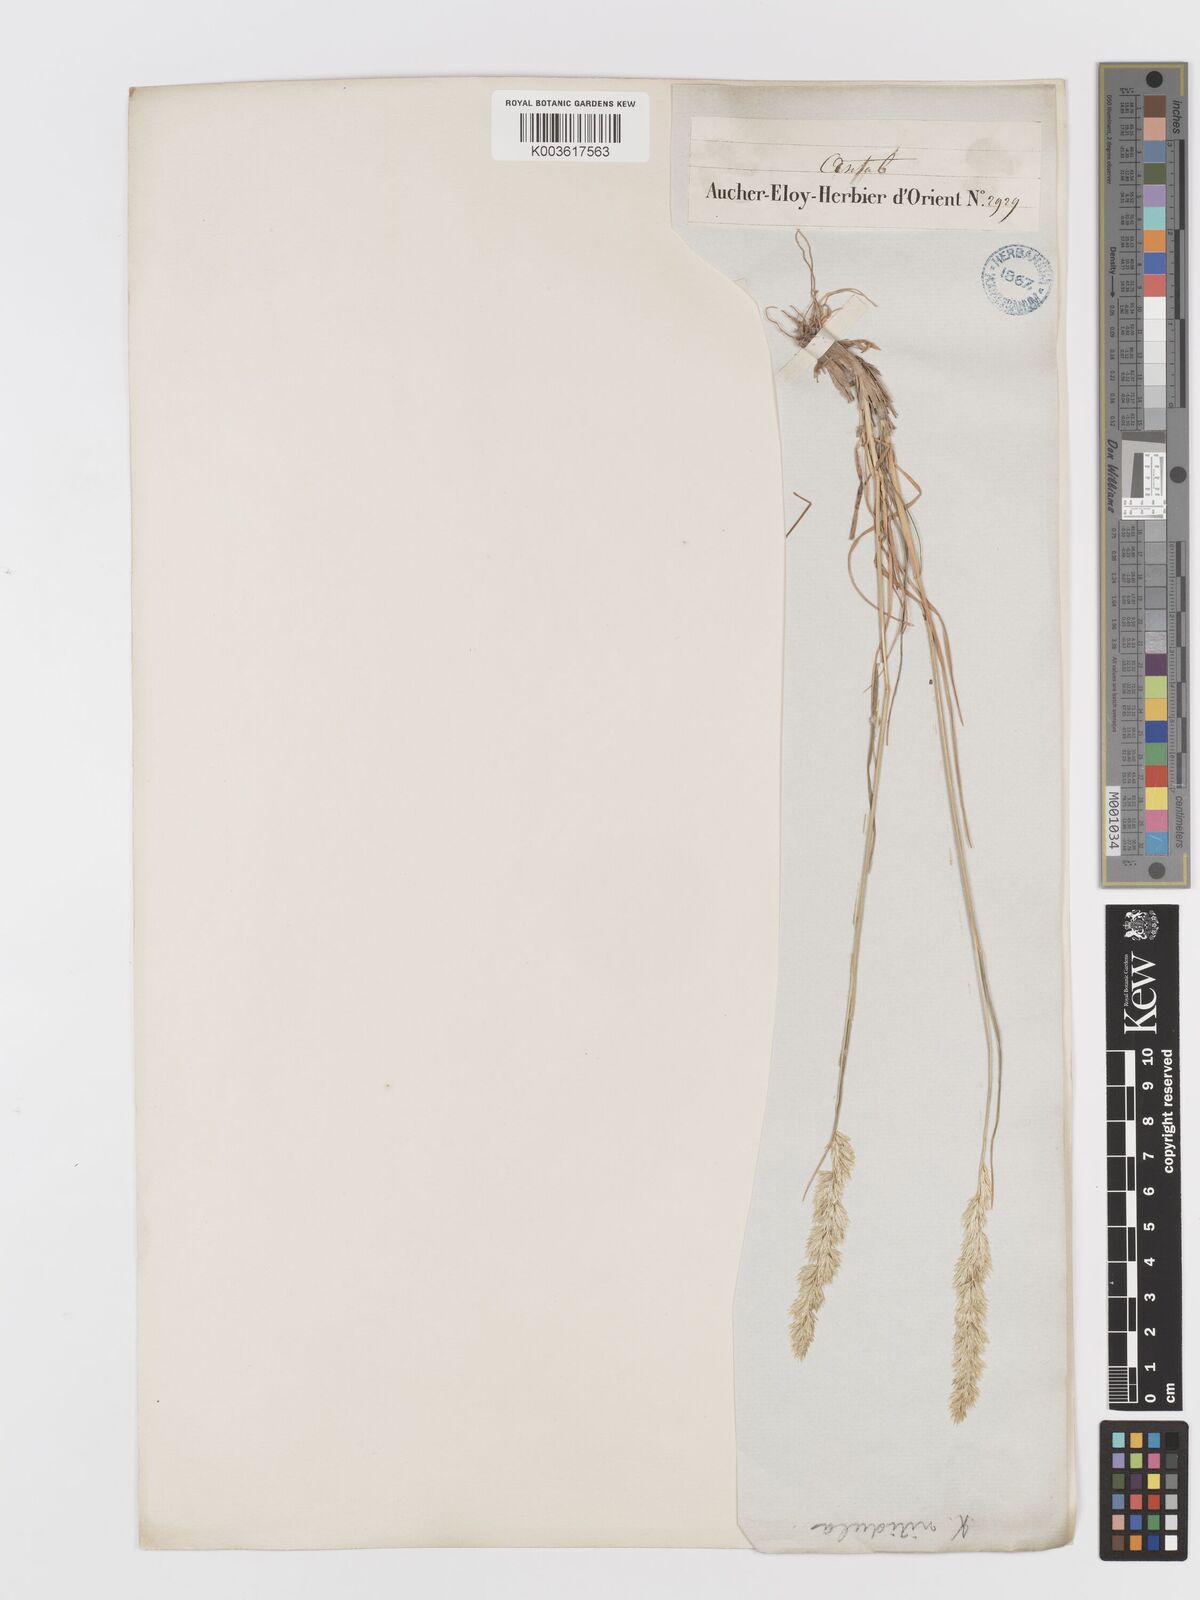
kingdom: Plantae
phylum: Tracheophyta
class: Liliopsida
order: Poales
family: Poaceae
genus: Koeleria
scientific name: Koeleria nitidula
